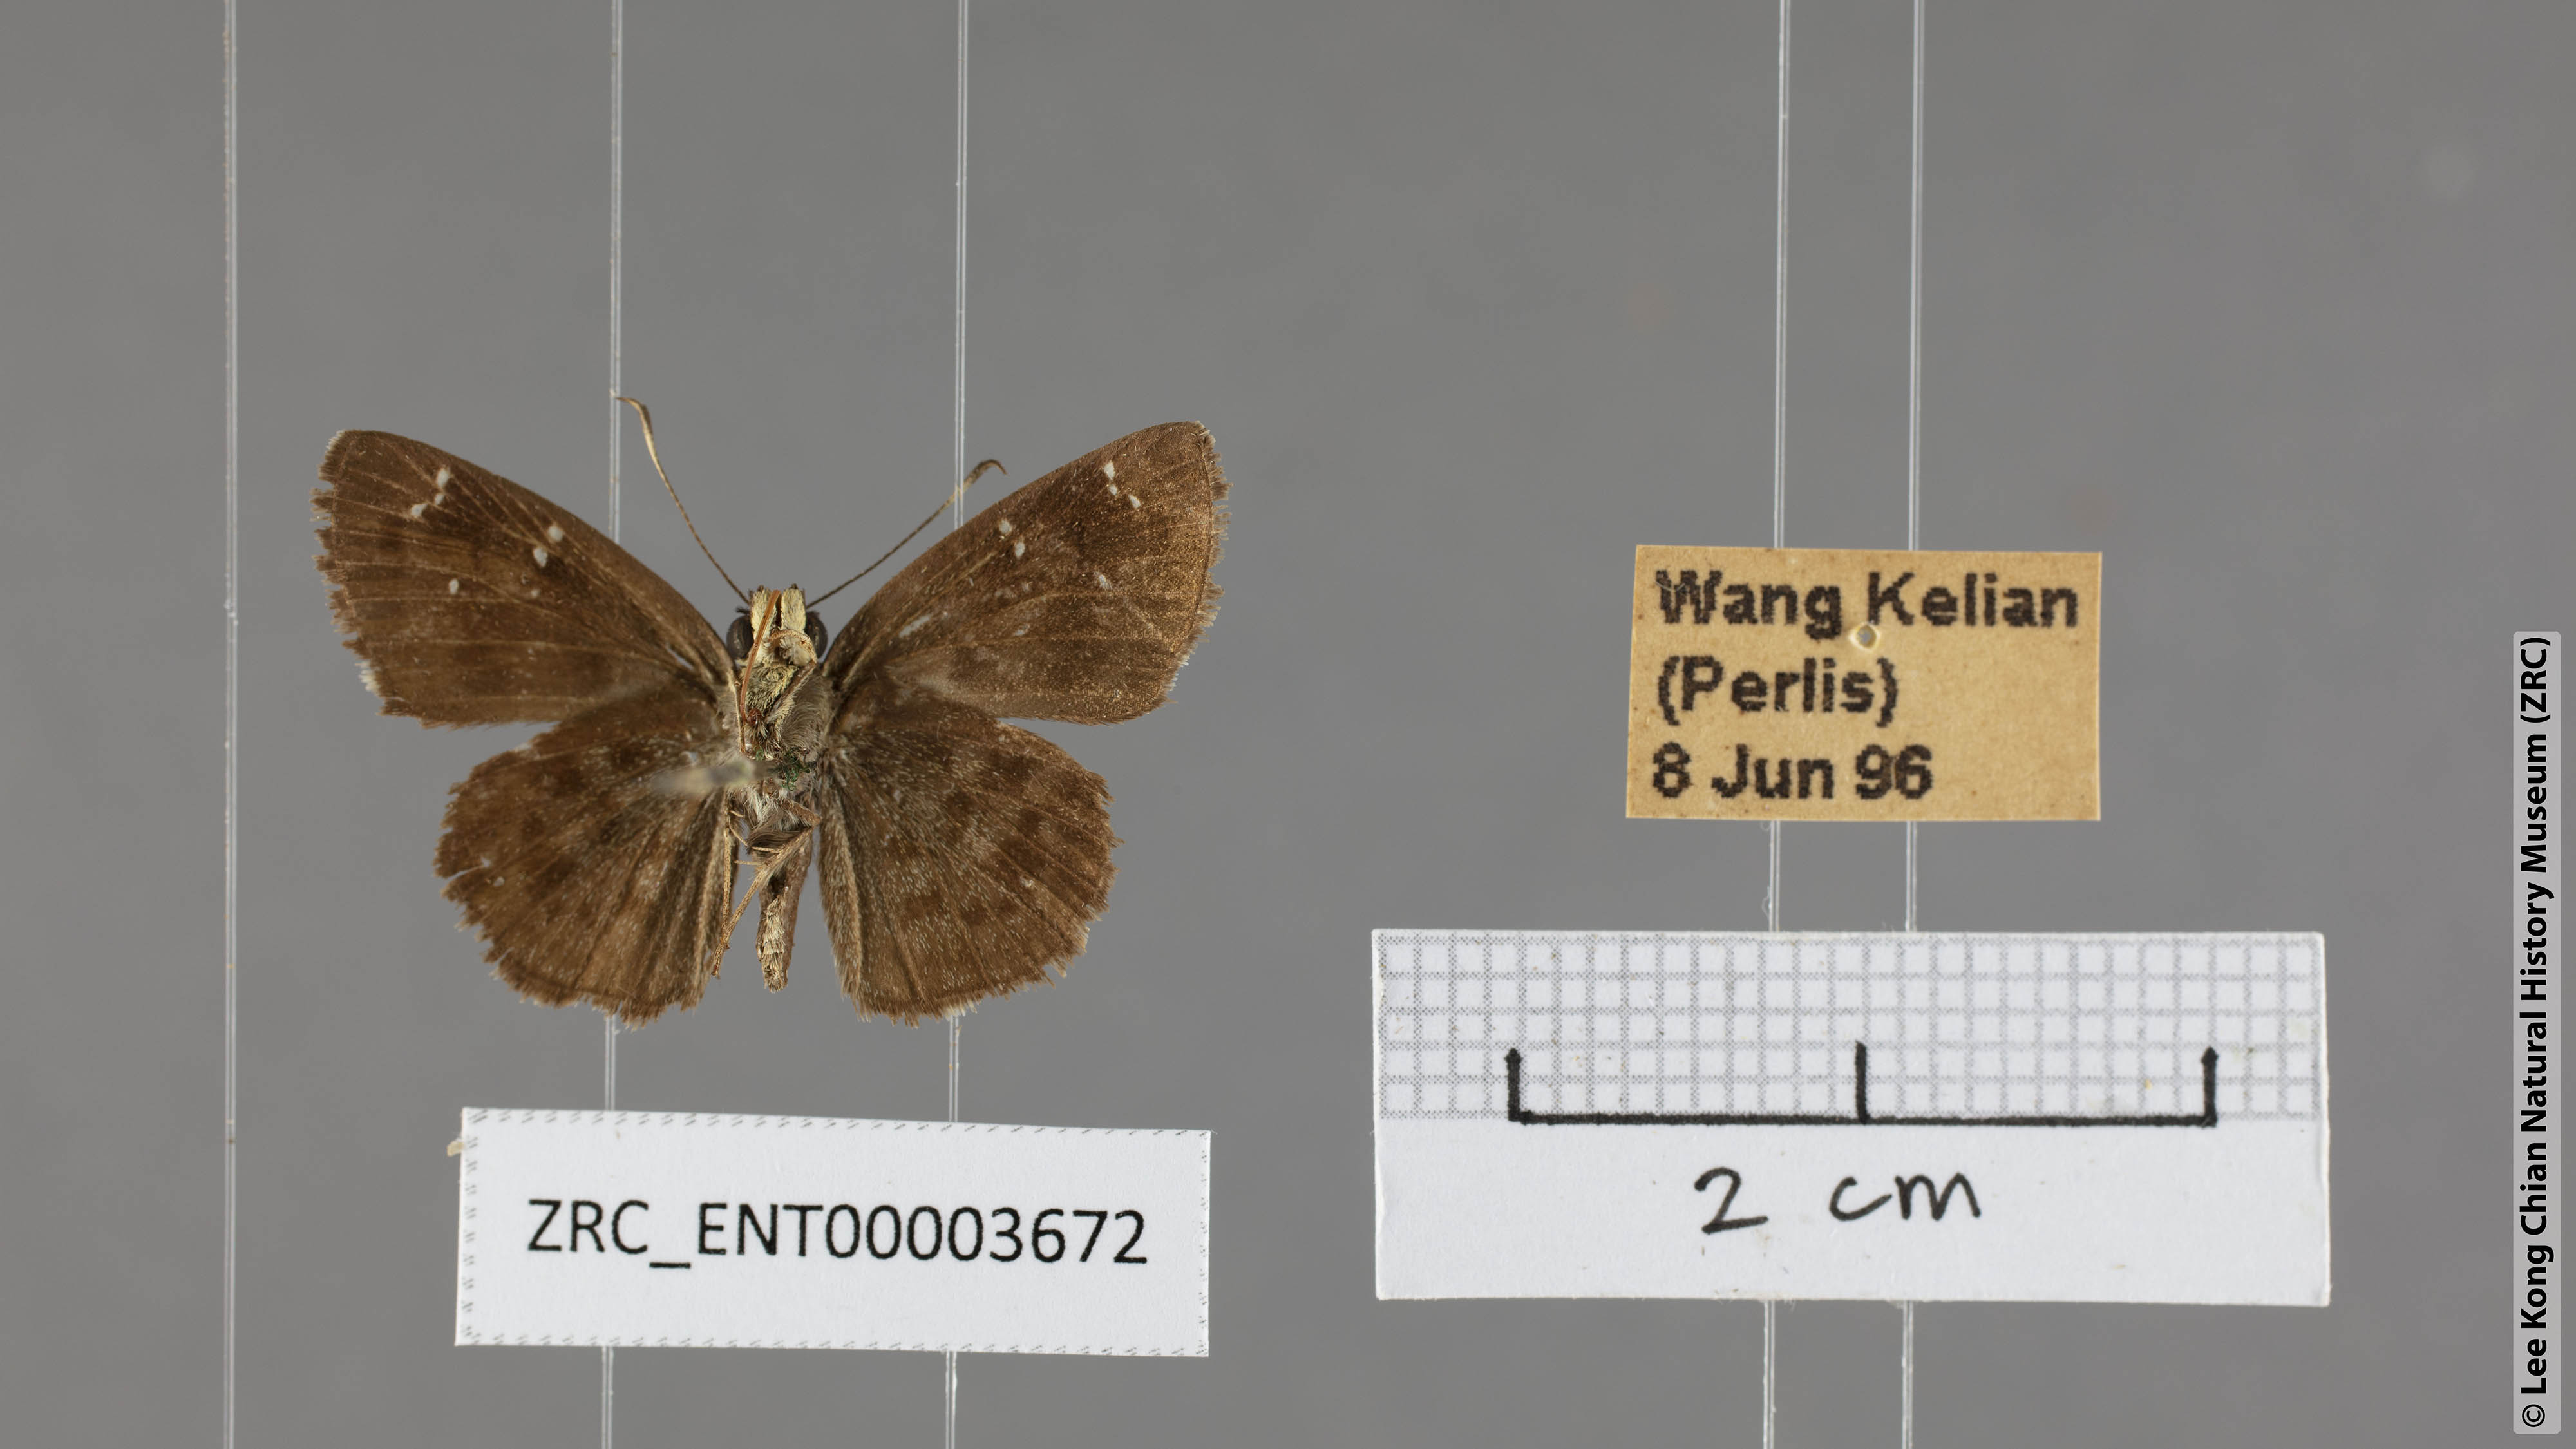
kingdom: Animalia
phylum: Arthropoda
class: Insecta
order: Lepidoptera
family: Hesperiidae
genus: Sarangesa
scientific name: Sarangesa dasahara
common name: Common small flat
